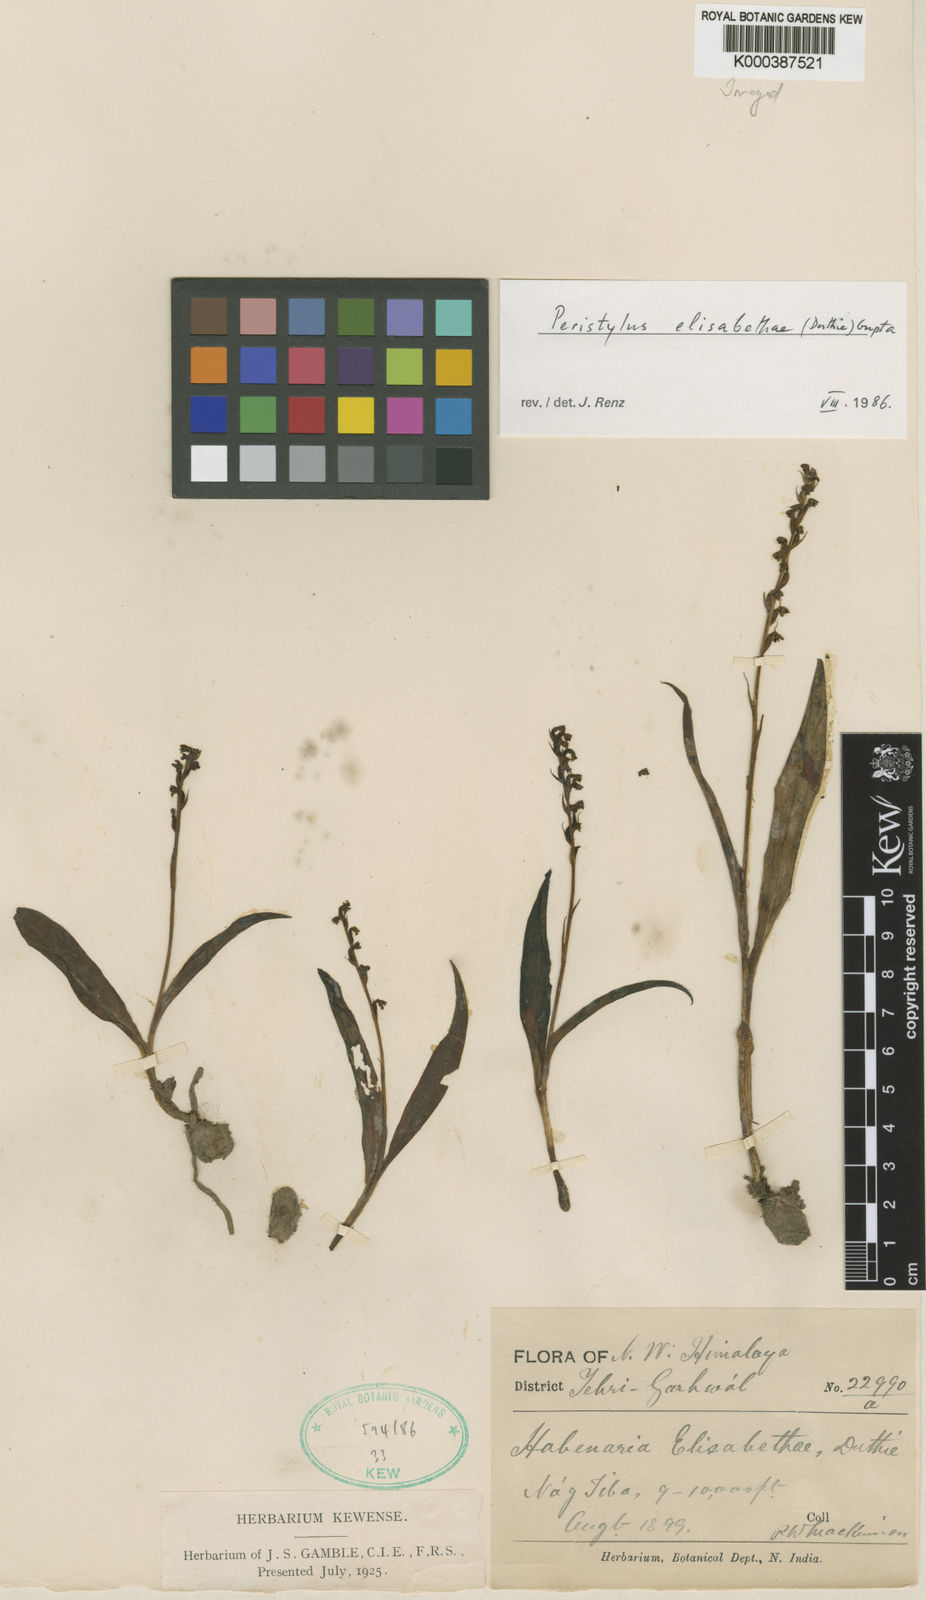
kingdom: Plantae
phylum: Tracheophyta
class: Liliopsida
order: Asparagales
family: Orchidaceae
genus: Herminium
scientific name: Herminium elisabethae
